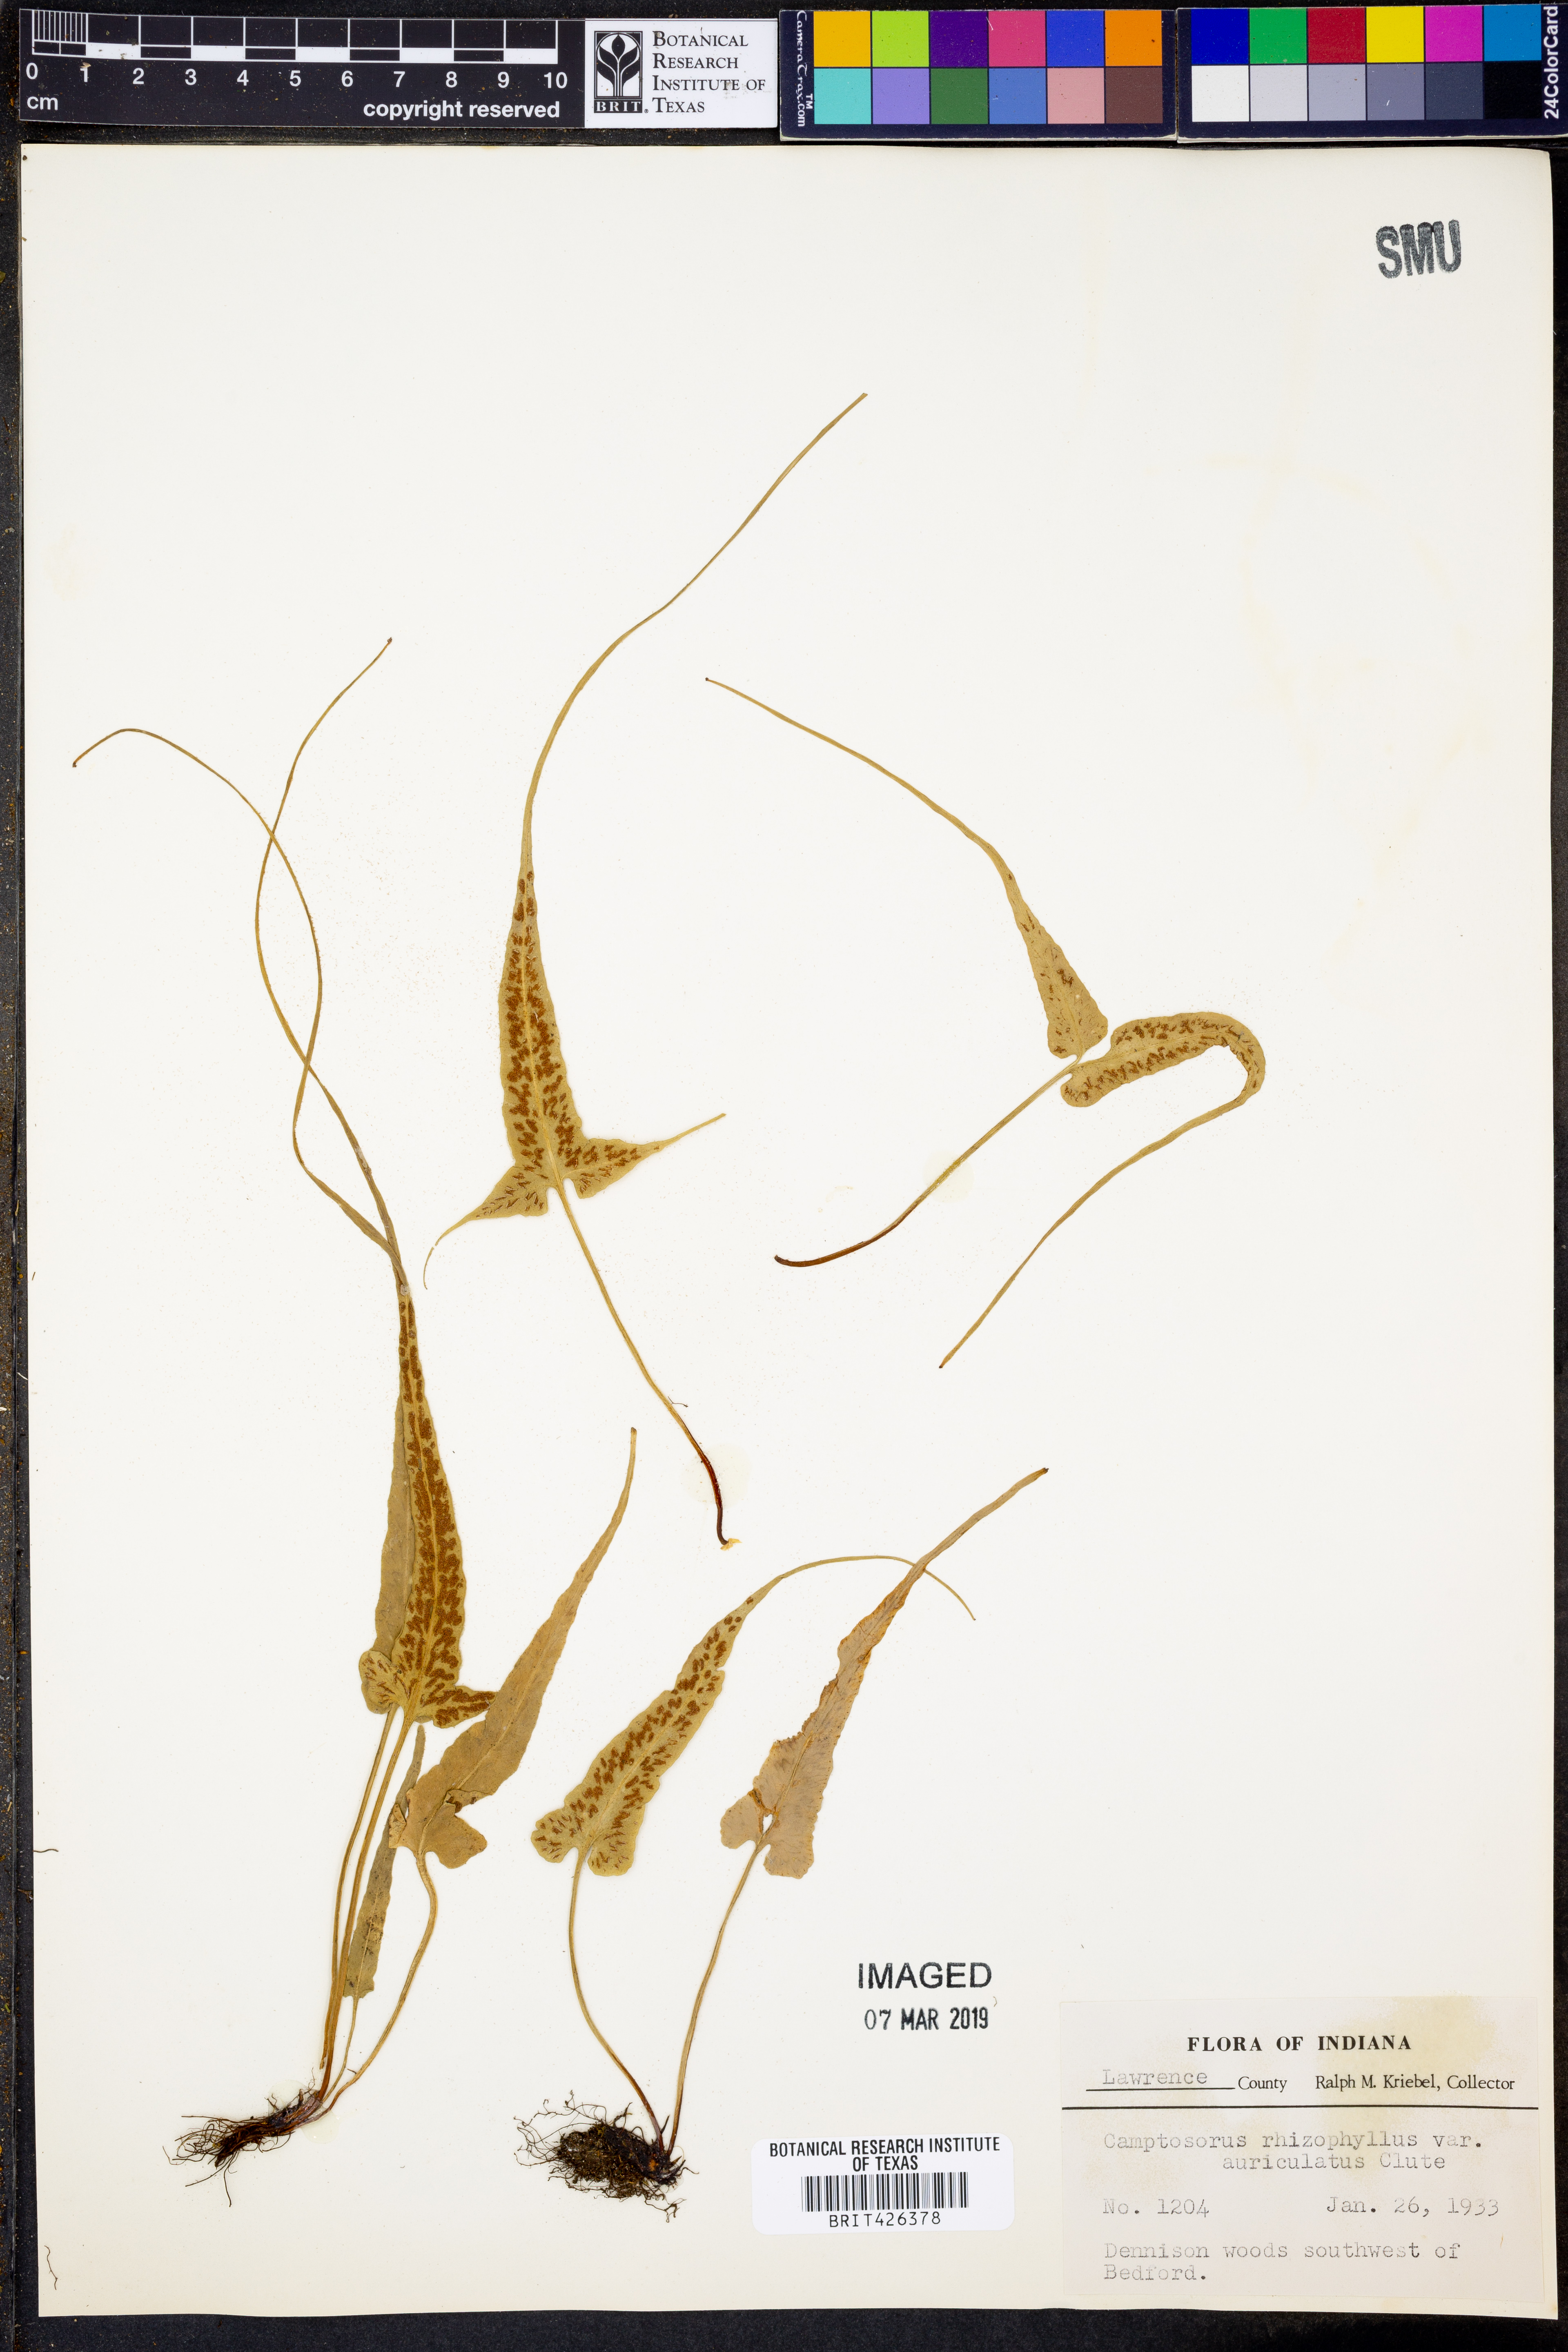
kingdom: Plantae
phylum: Tracheophyta
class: Polypodiopsida
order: Polypodiales
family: Aspleniaceae
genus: Asplenium
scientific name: Asplenium rhizophyllum
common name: Walking fern
